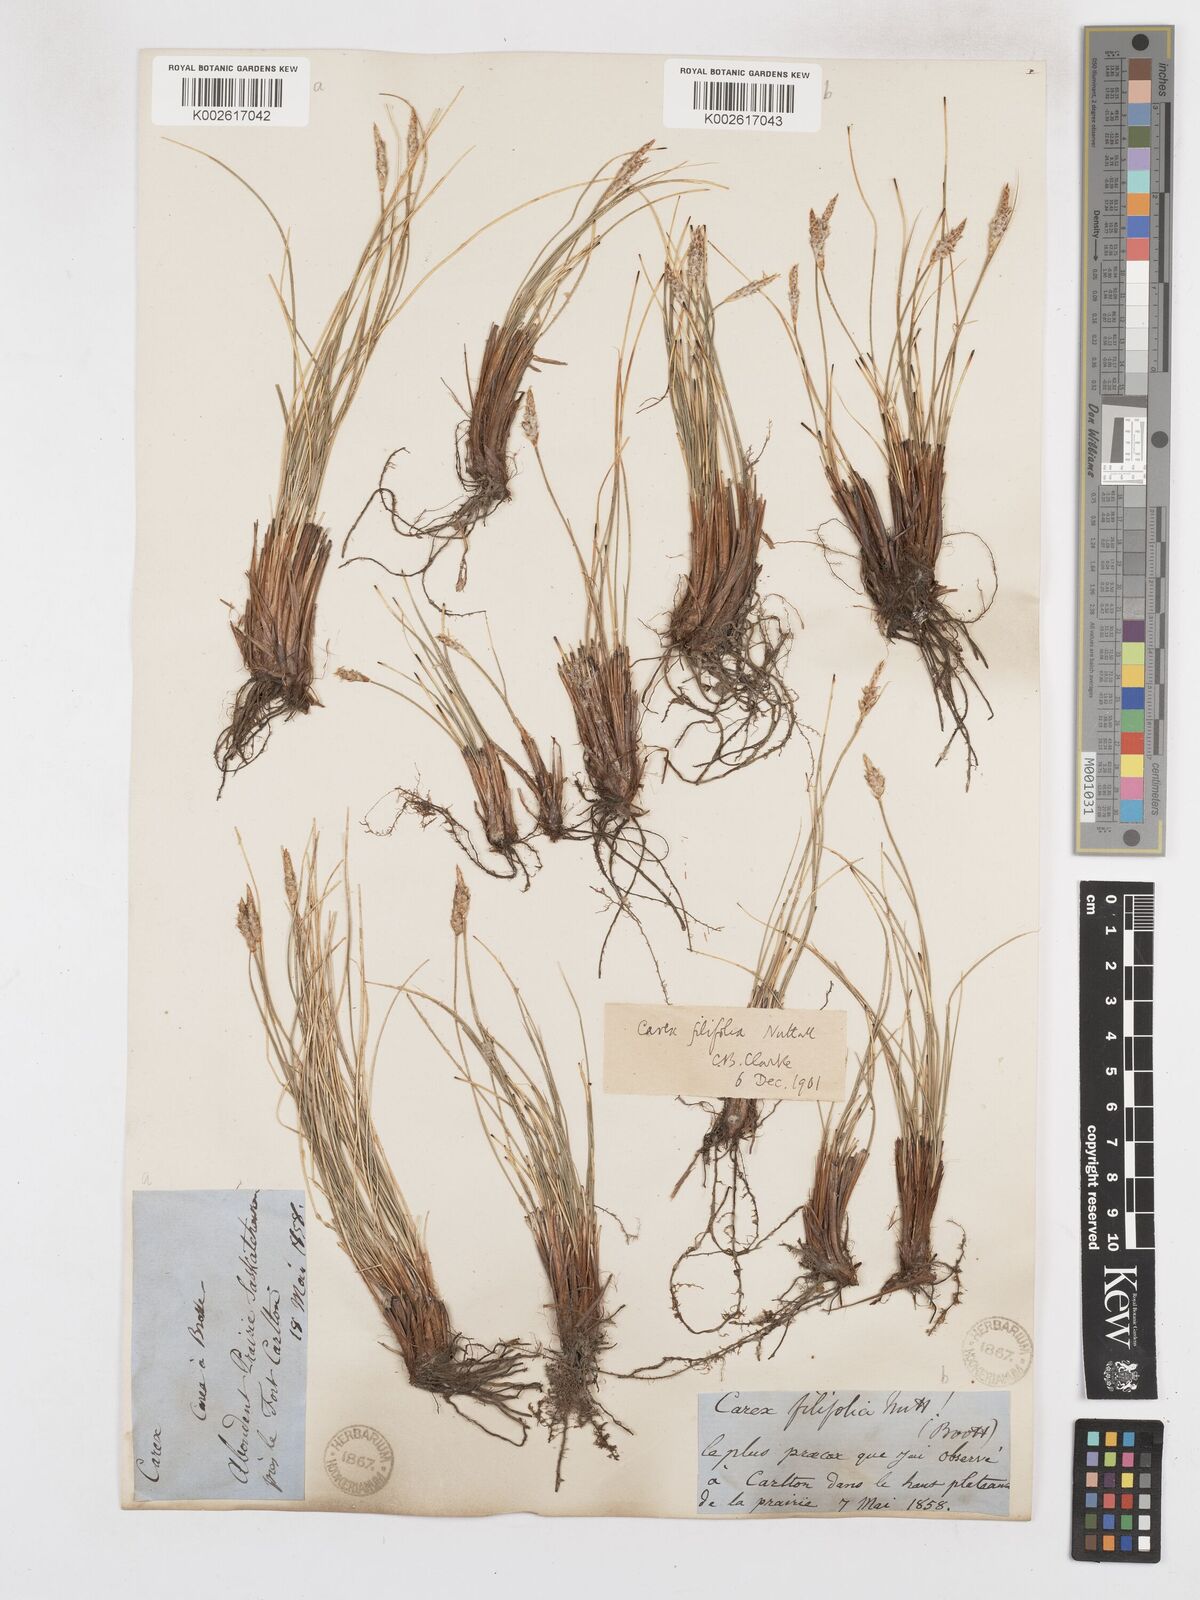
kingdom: Plantae
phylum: Tracheophyta
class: Liliopsida
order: Poales
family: Cyperaceae
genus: Carex
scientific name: Carex filifolia
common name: Threadleaf sedge
